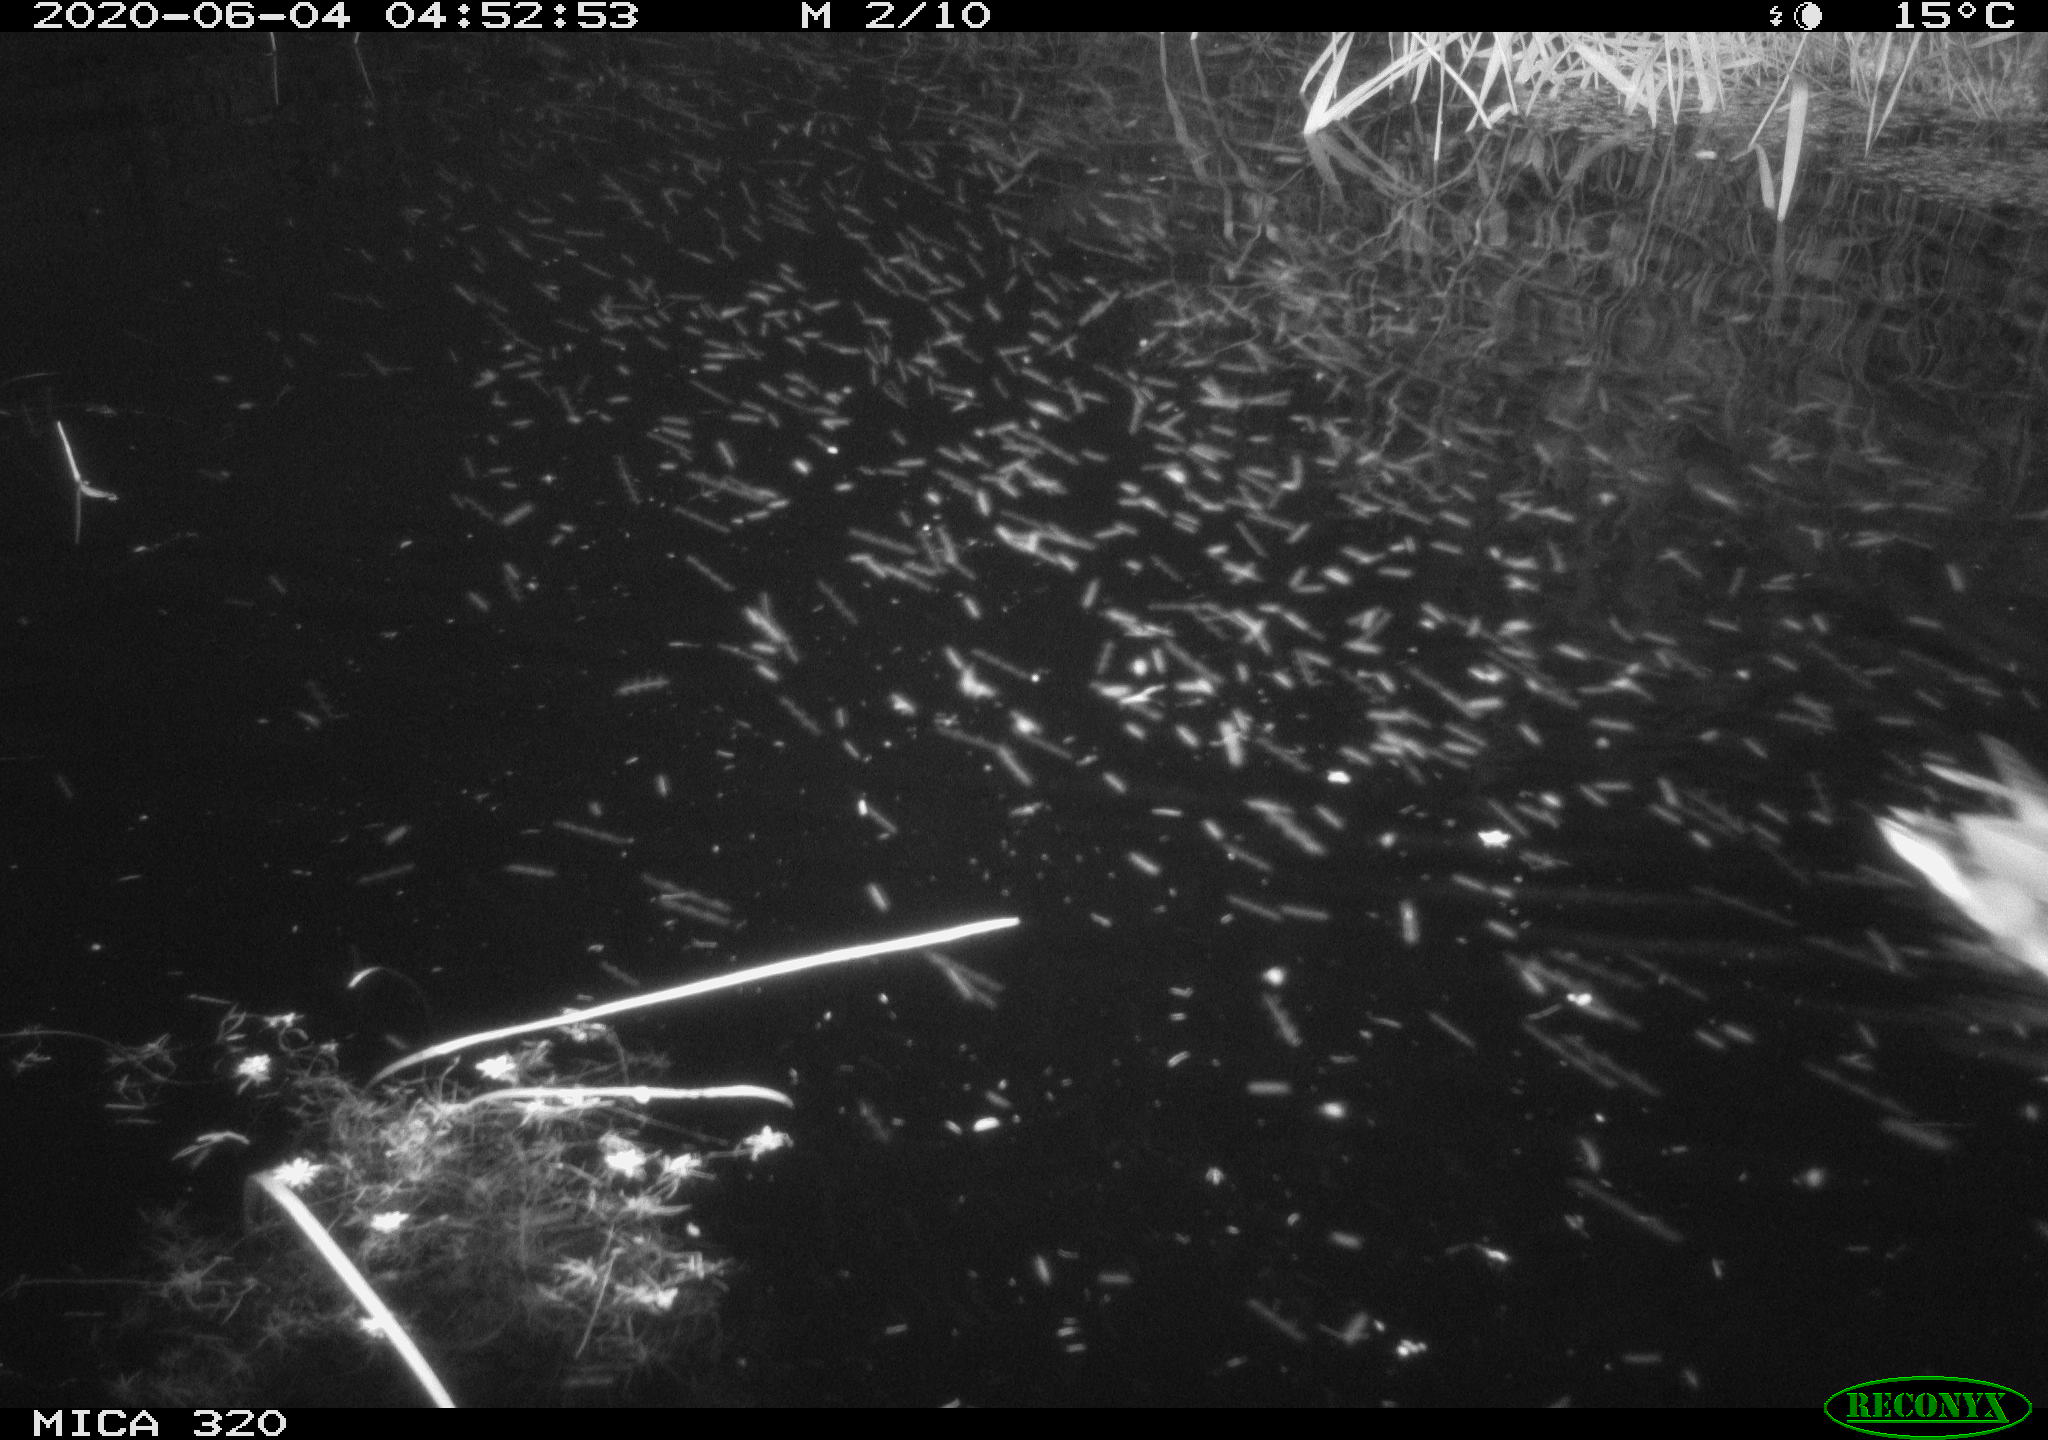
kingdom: Animalia
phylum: Chordata
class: Aves
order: Anseriformes
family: Anatidae
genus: Anas
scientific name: Anas platyrhynchos
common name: Mallard
